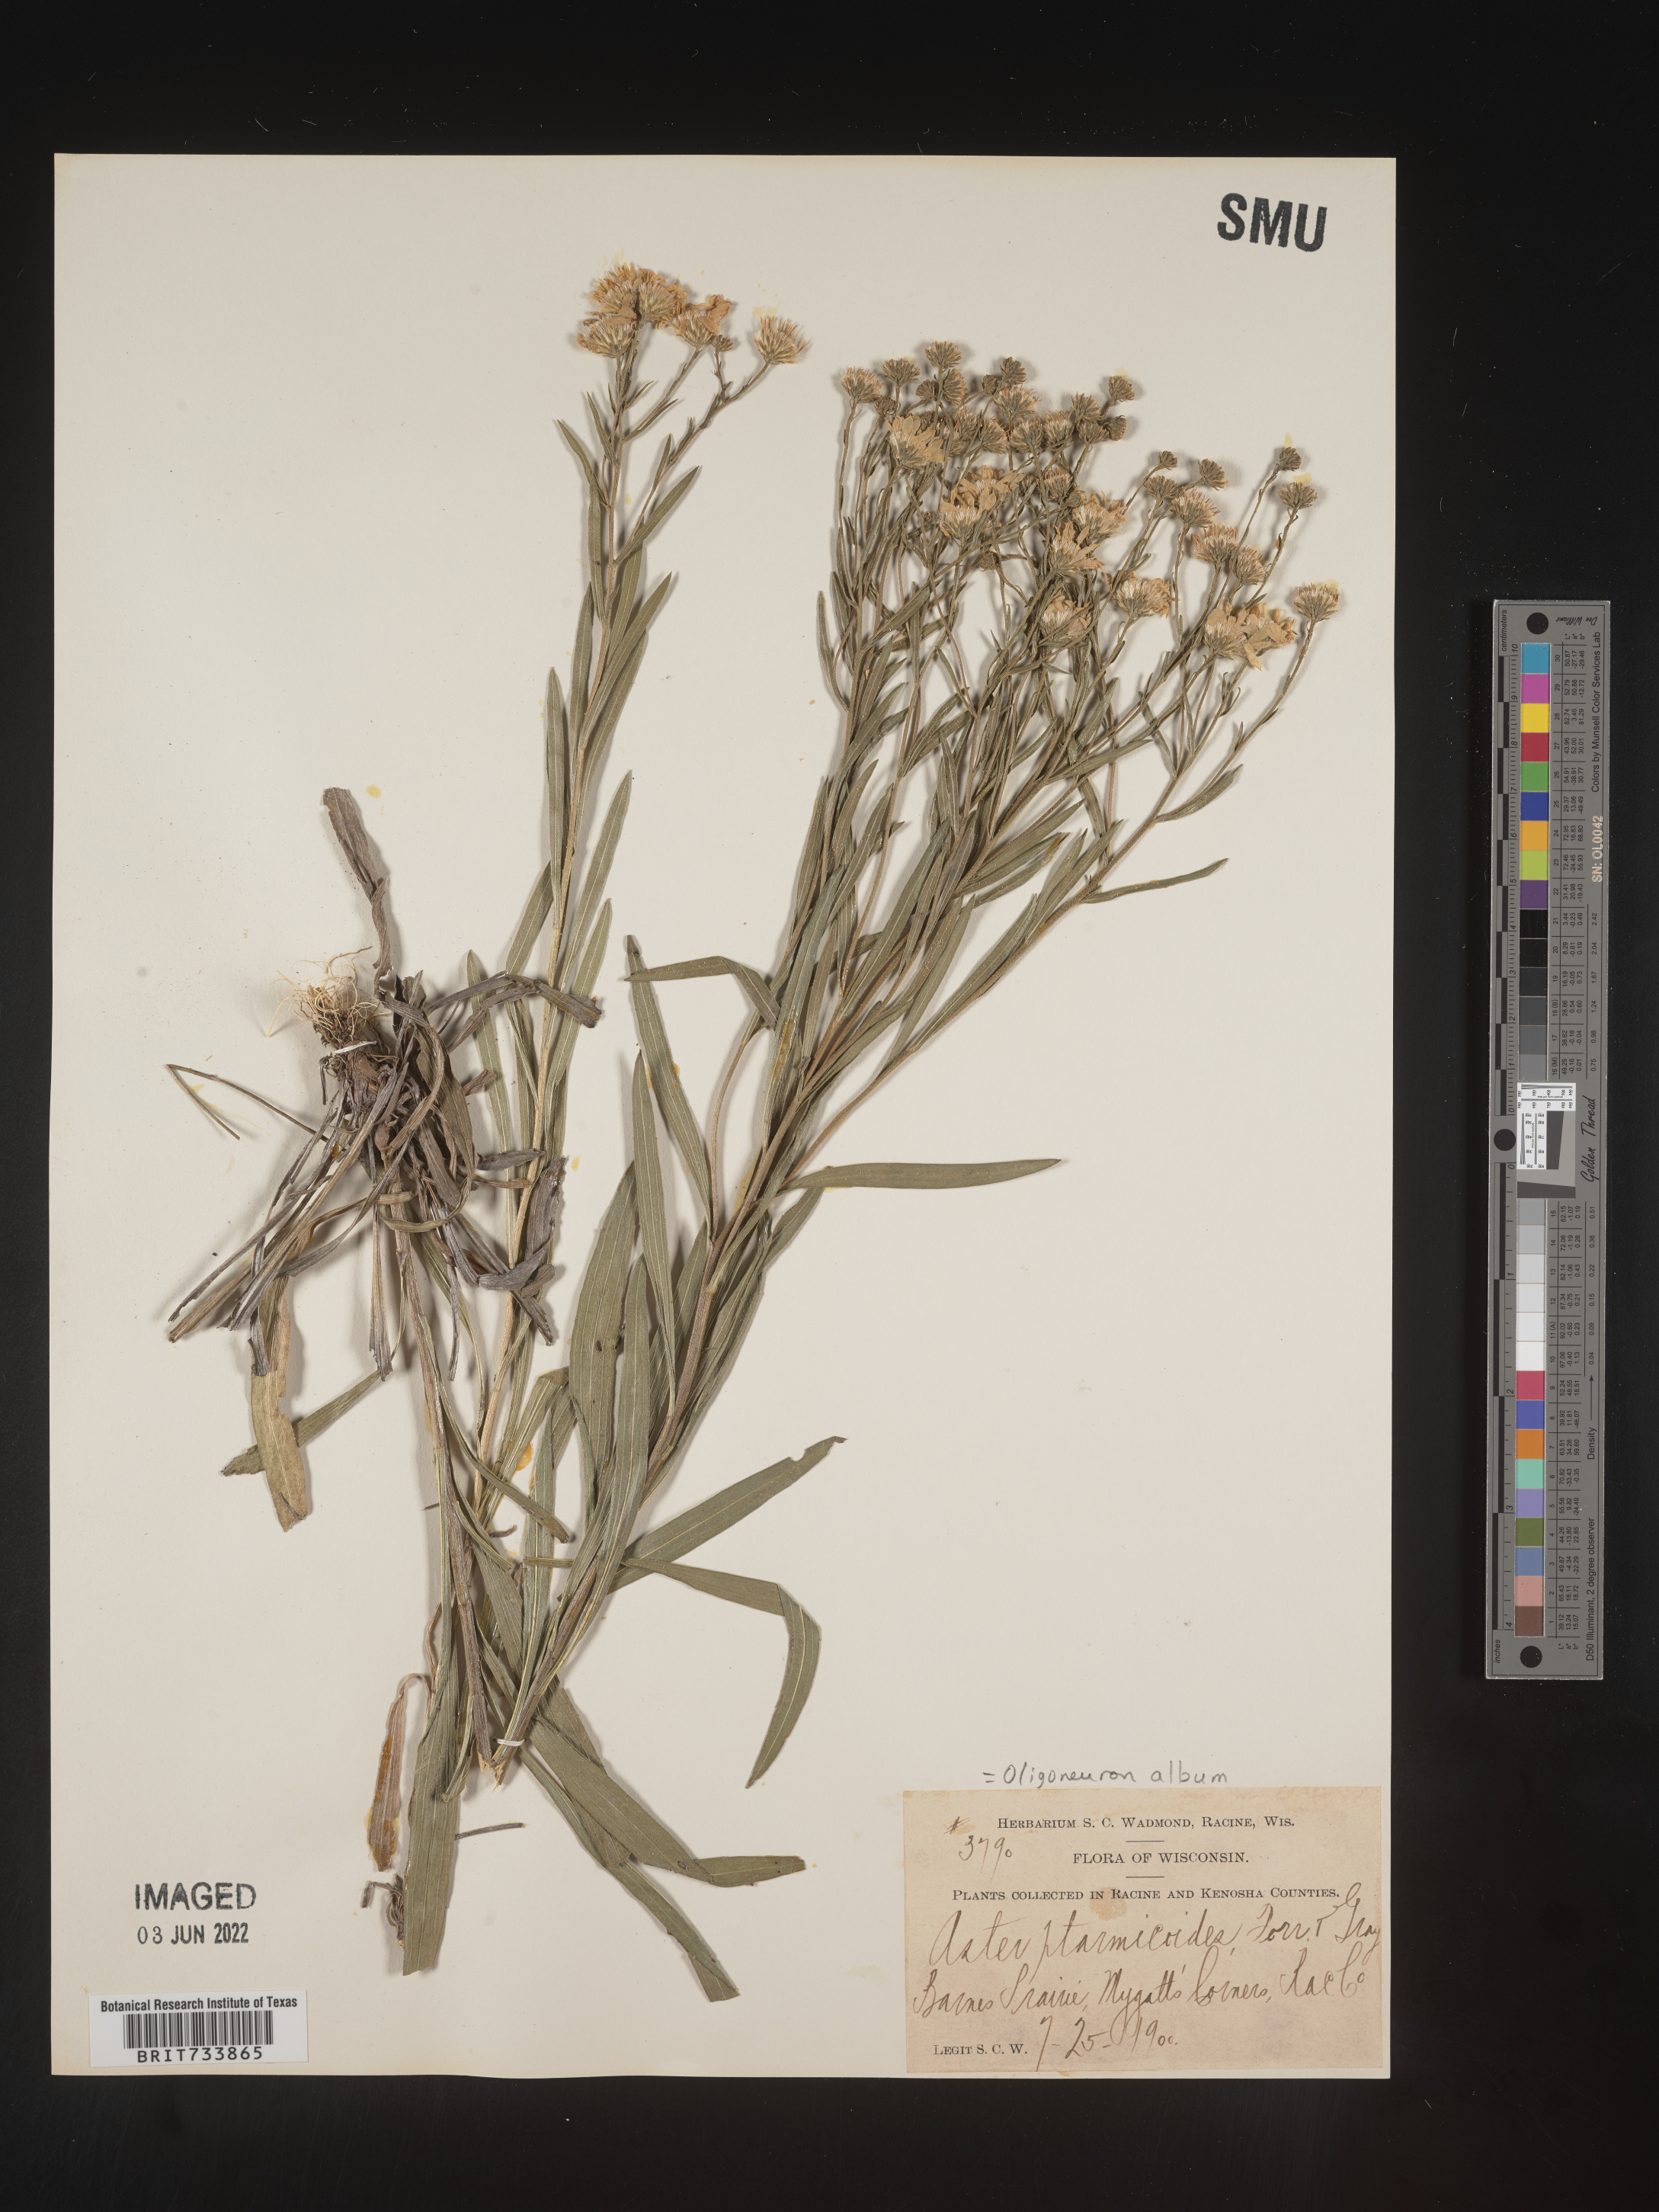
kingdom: Plantae
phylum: Tracheophyta
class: Magnoliopsida
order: Asterales
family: Asteraceae
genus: Solidago
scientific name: Solidago ptarmicoides
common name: White flat-top goldenrod
